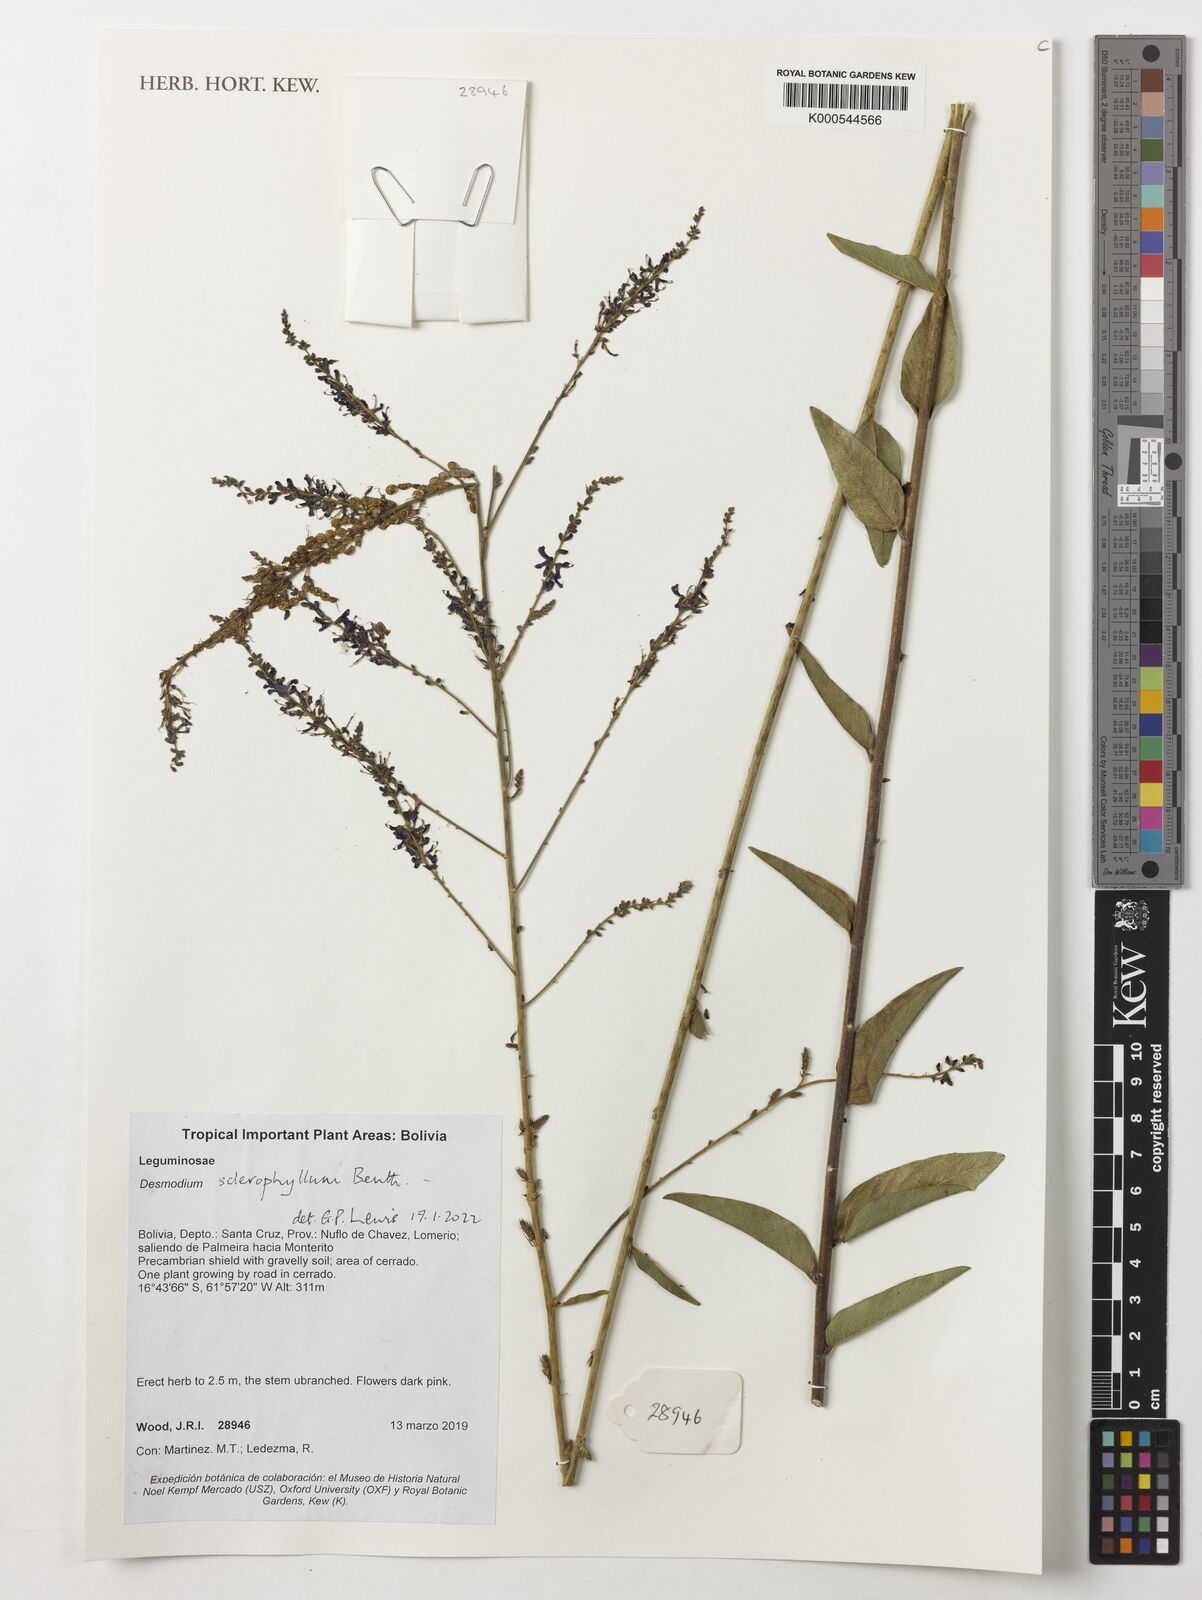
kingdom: Plantae
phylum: Tracheophyta
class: Magnoliopsida
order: Fabales
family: Fabaceae
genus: Desmodium
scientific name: Desmodium sclerophyllum
